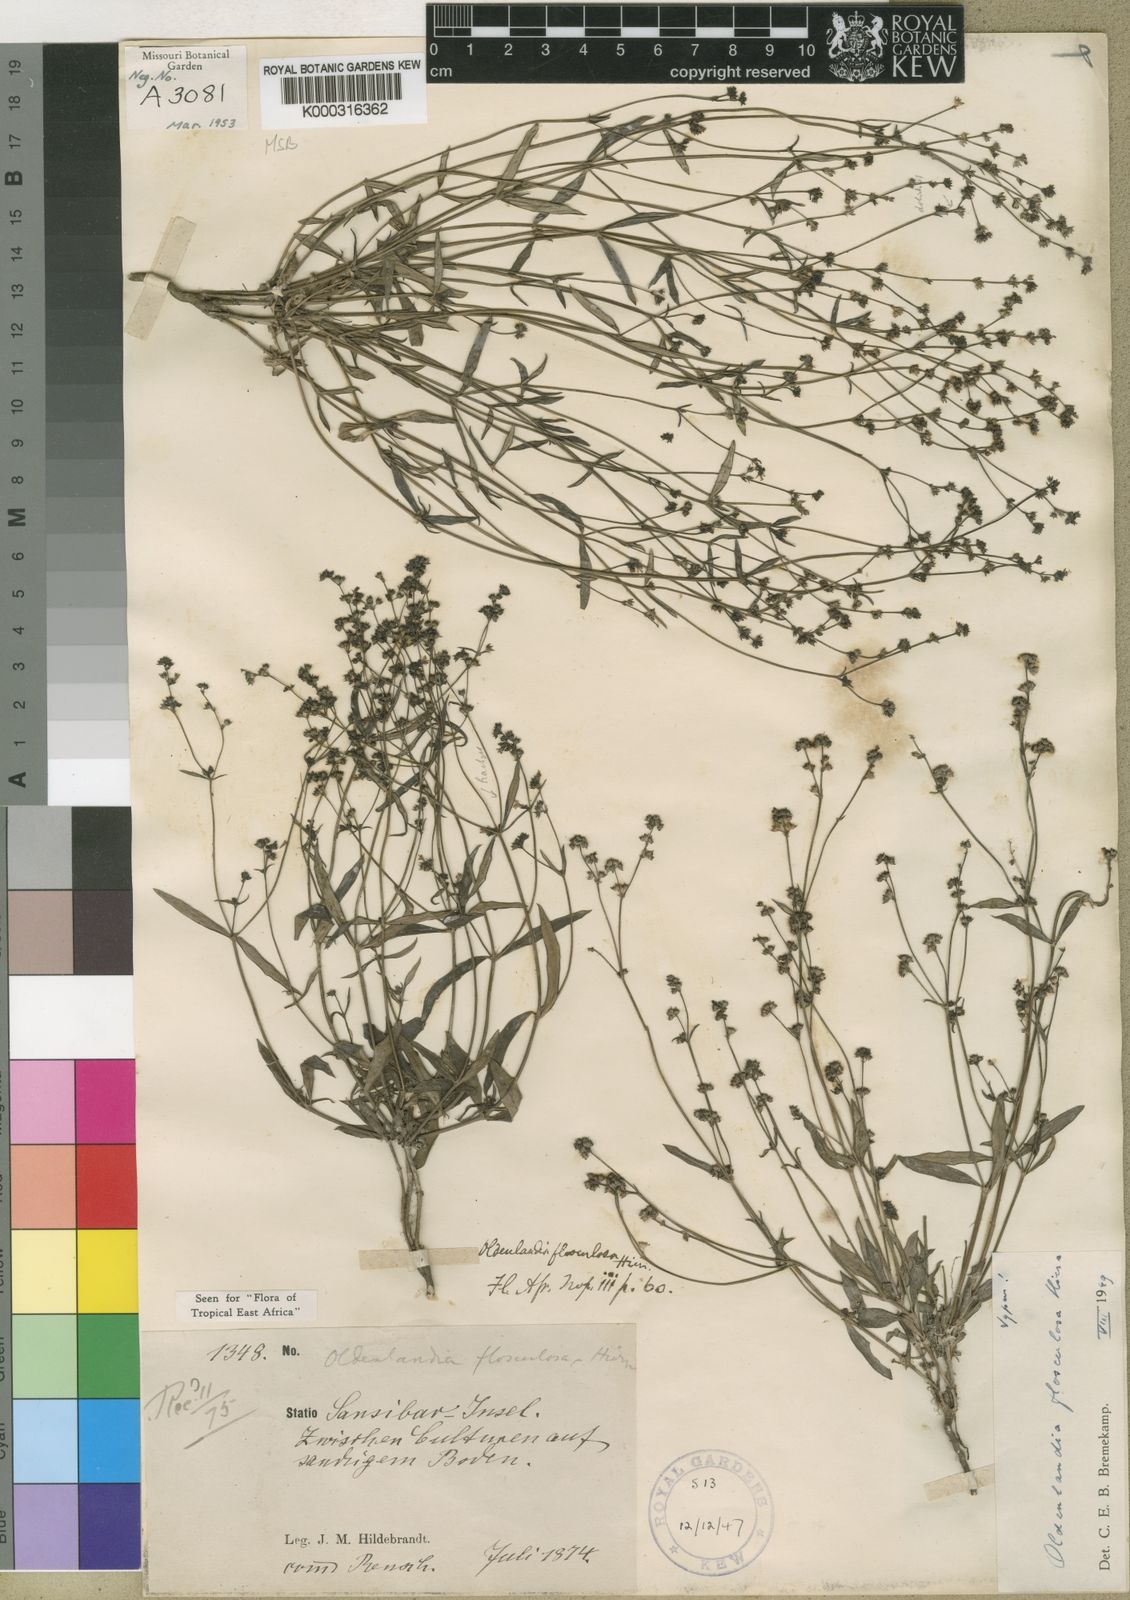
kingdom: Plantae
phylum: Tracheophyta
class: Magnoliopsida
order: Gentianales
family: Rubiaceae
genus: Oldenlandia
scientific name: Oldenlandia flosculosa
